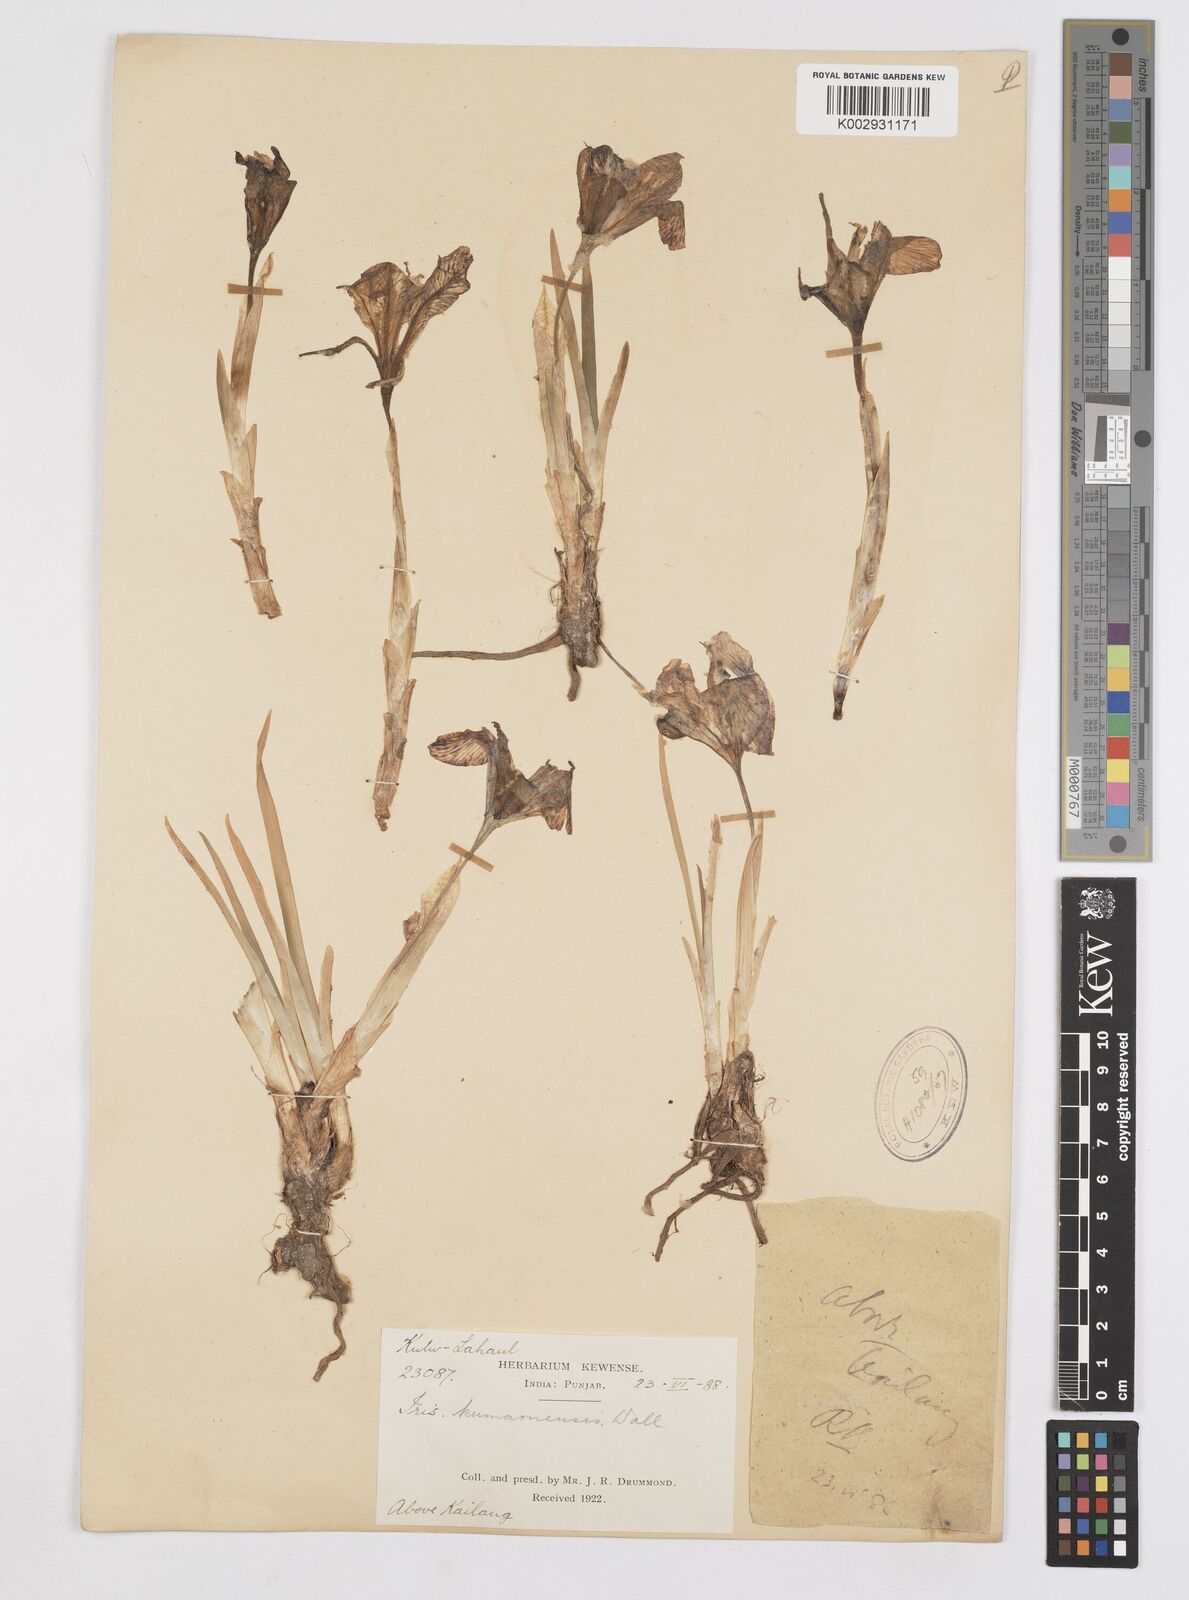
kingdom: Plantae
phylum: Tracheophyta
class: Liliopsida
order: Asparagales
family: Iridaceae
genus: Iris
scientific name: Iris kemaonensis
